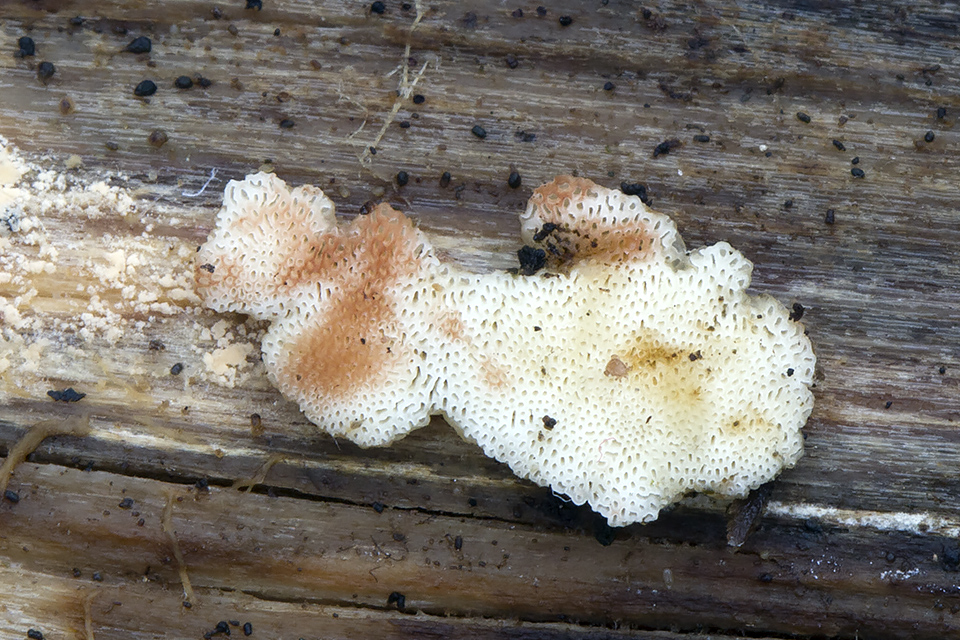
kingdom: Fungi
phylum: Basidiomycota
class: Agaricomycetes
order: Polyporales
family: Meripilaceae
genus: Rigidoporus
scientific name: Rigidoporus sanguinolentus
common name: blod-skorpeporesvamp
